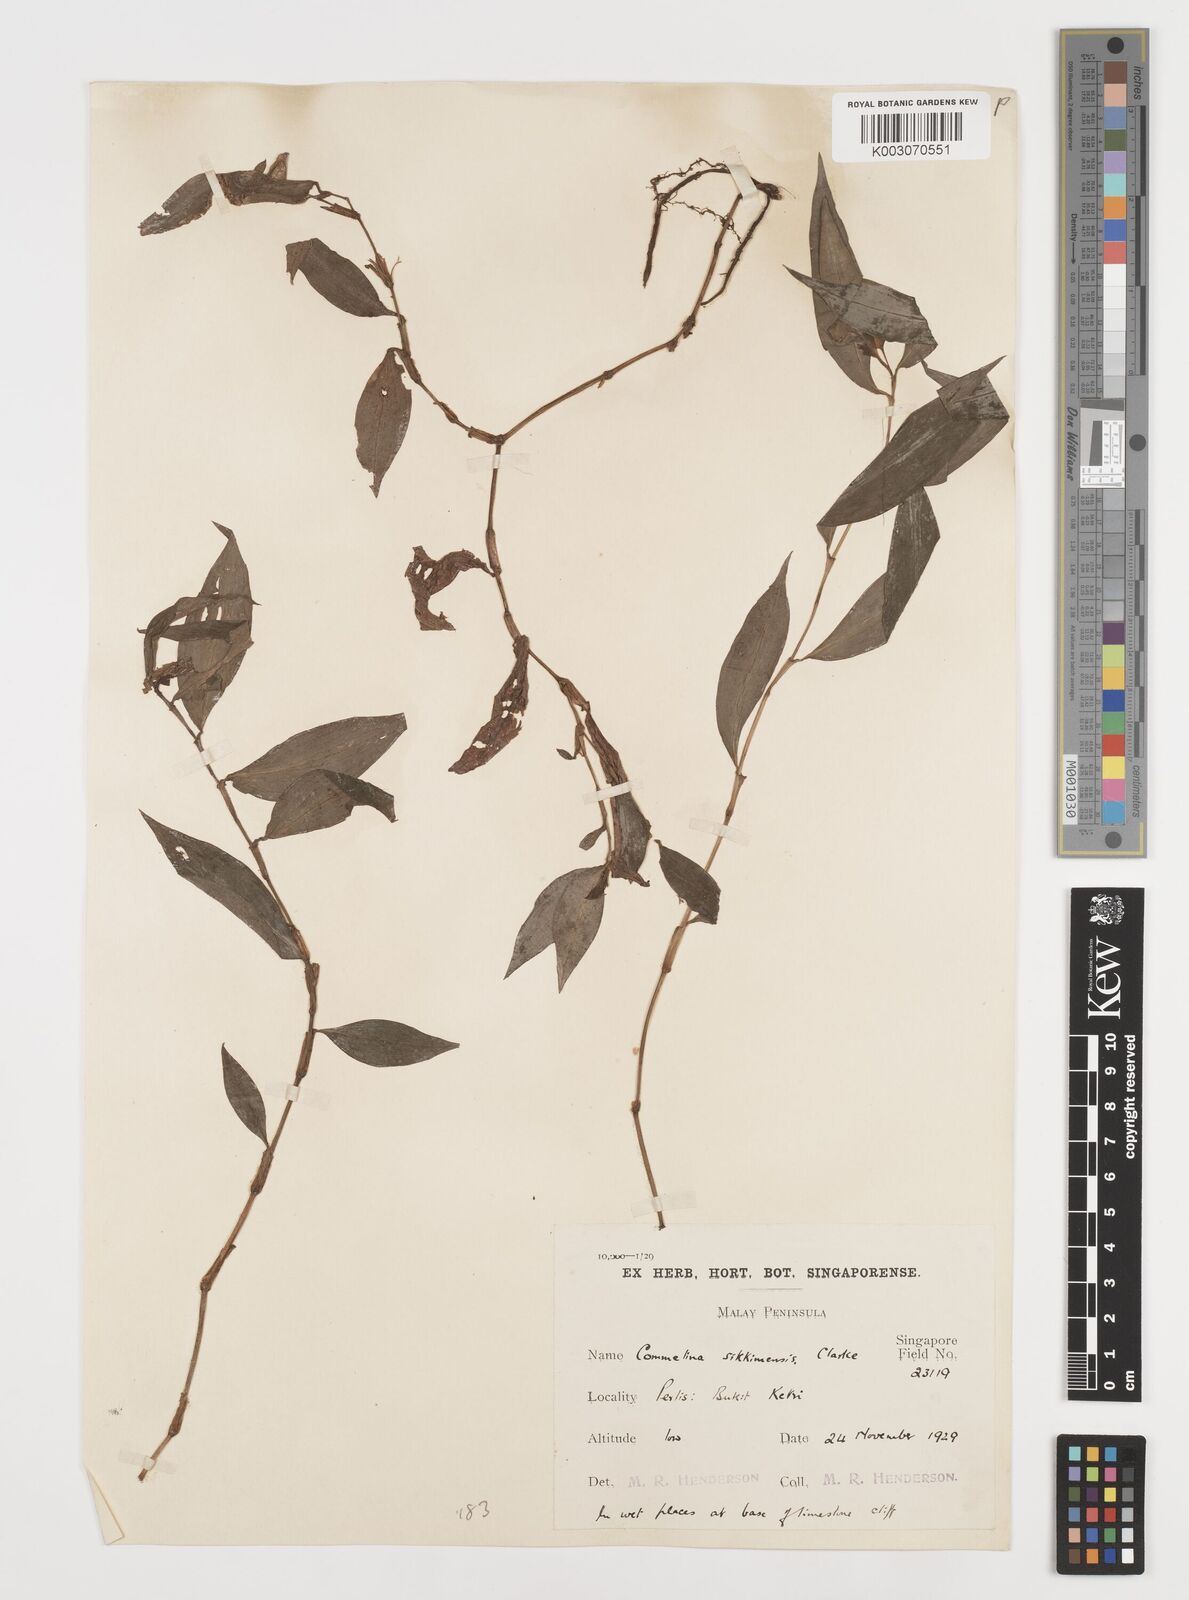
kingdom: Plantae
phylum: Tracheophyta
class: Liliopsida
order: Commelinales
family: Commelinaceae
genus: Commelina
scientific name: Commelina sikkimensis
